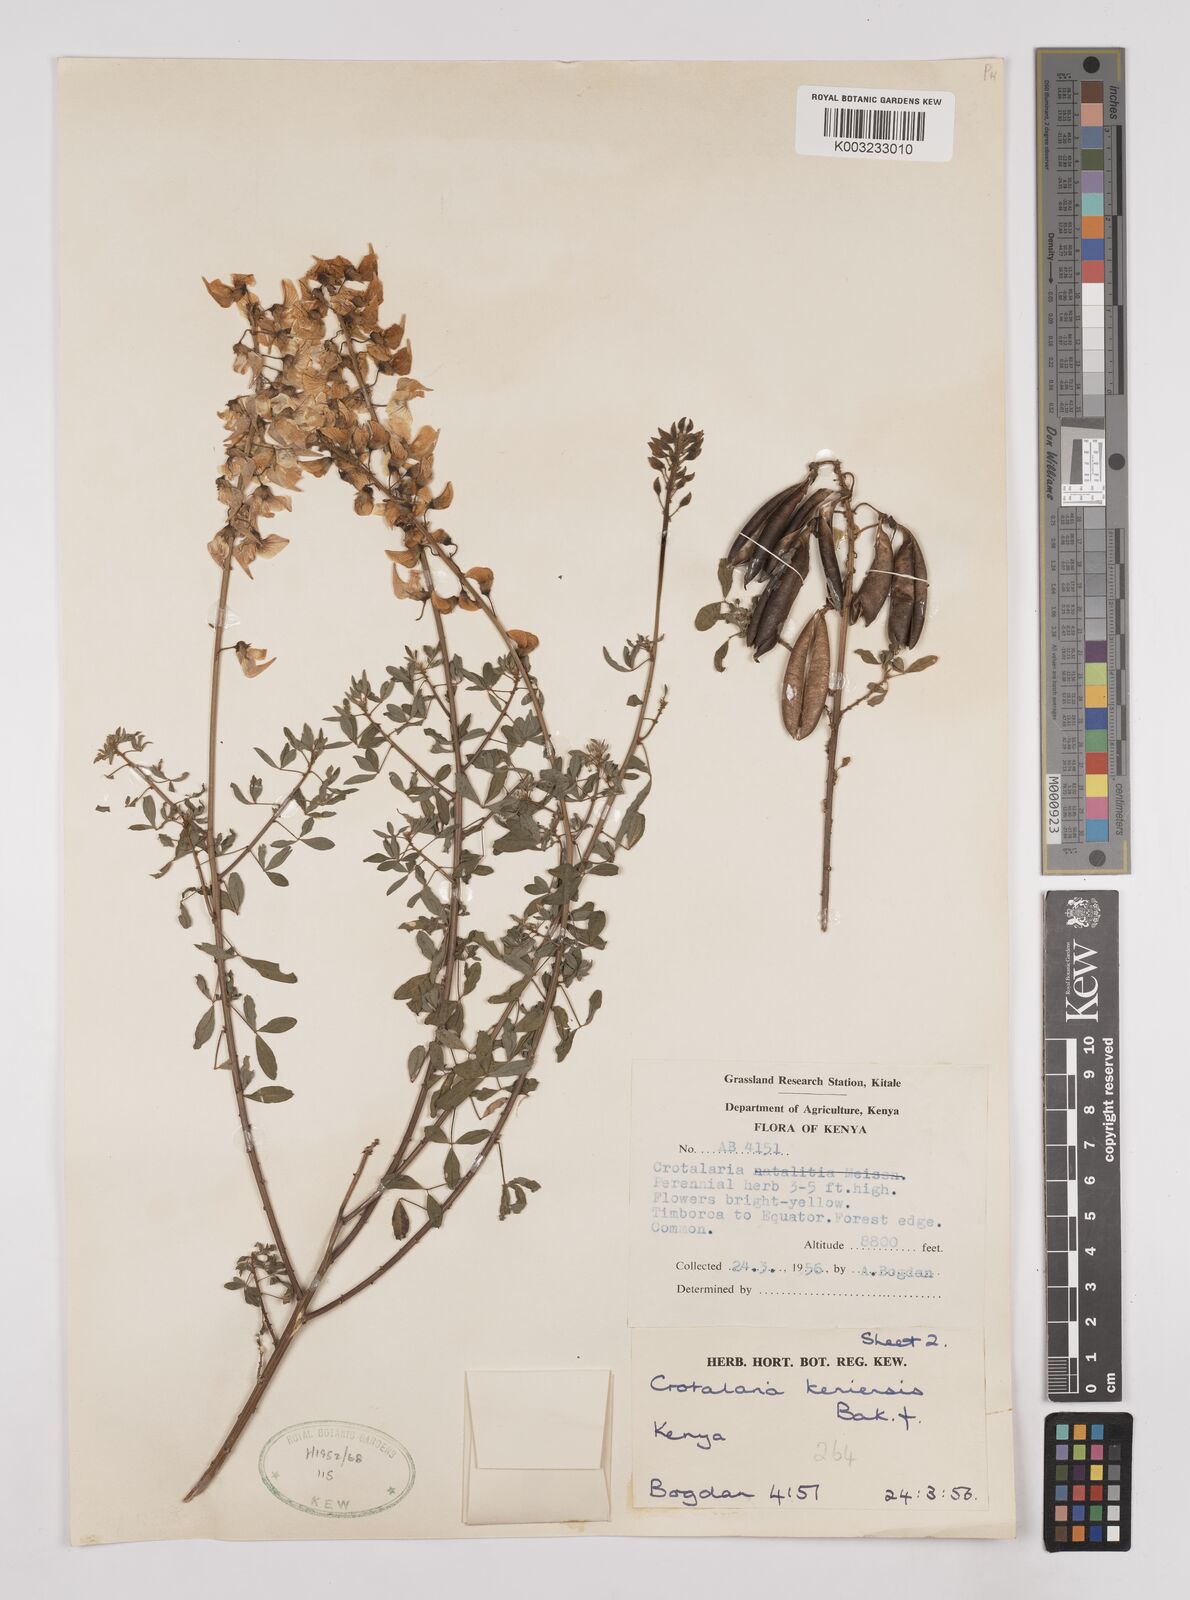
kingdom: Plantae
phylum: Tracheophyta
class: Magnoliopsida
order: Fabales
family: Fabaceae
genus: Crotalaria
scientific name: Crotalaria keniensis
